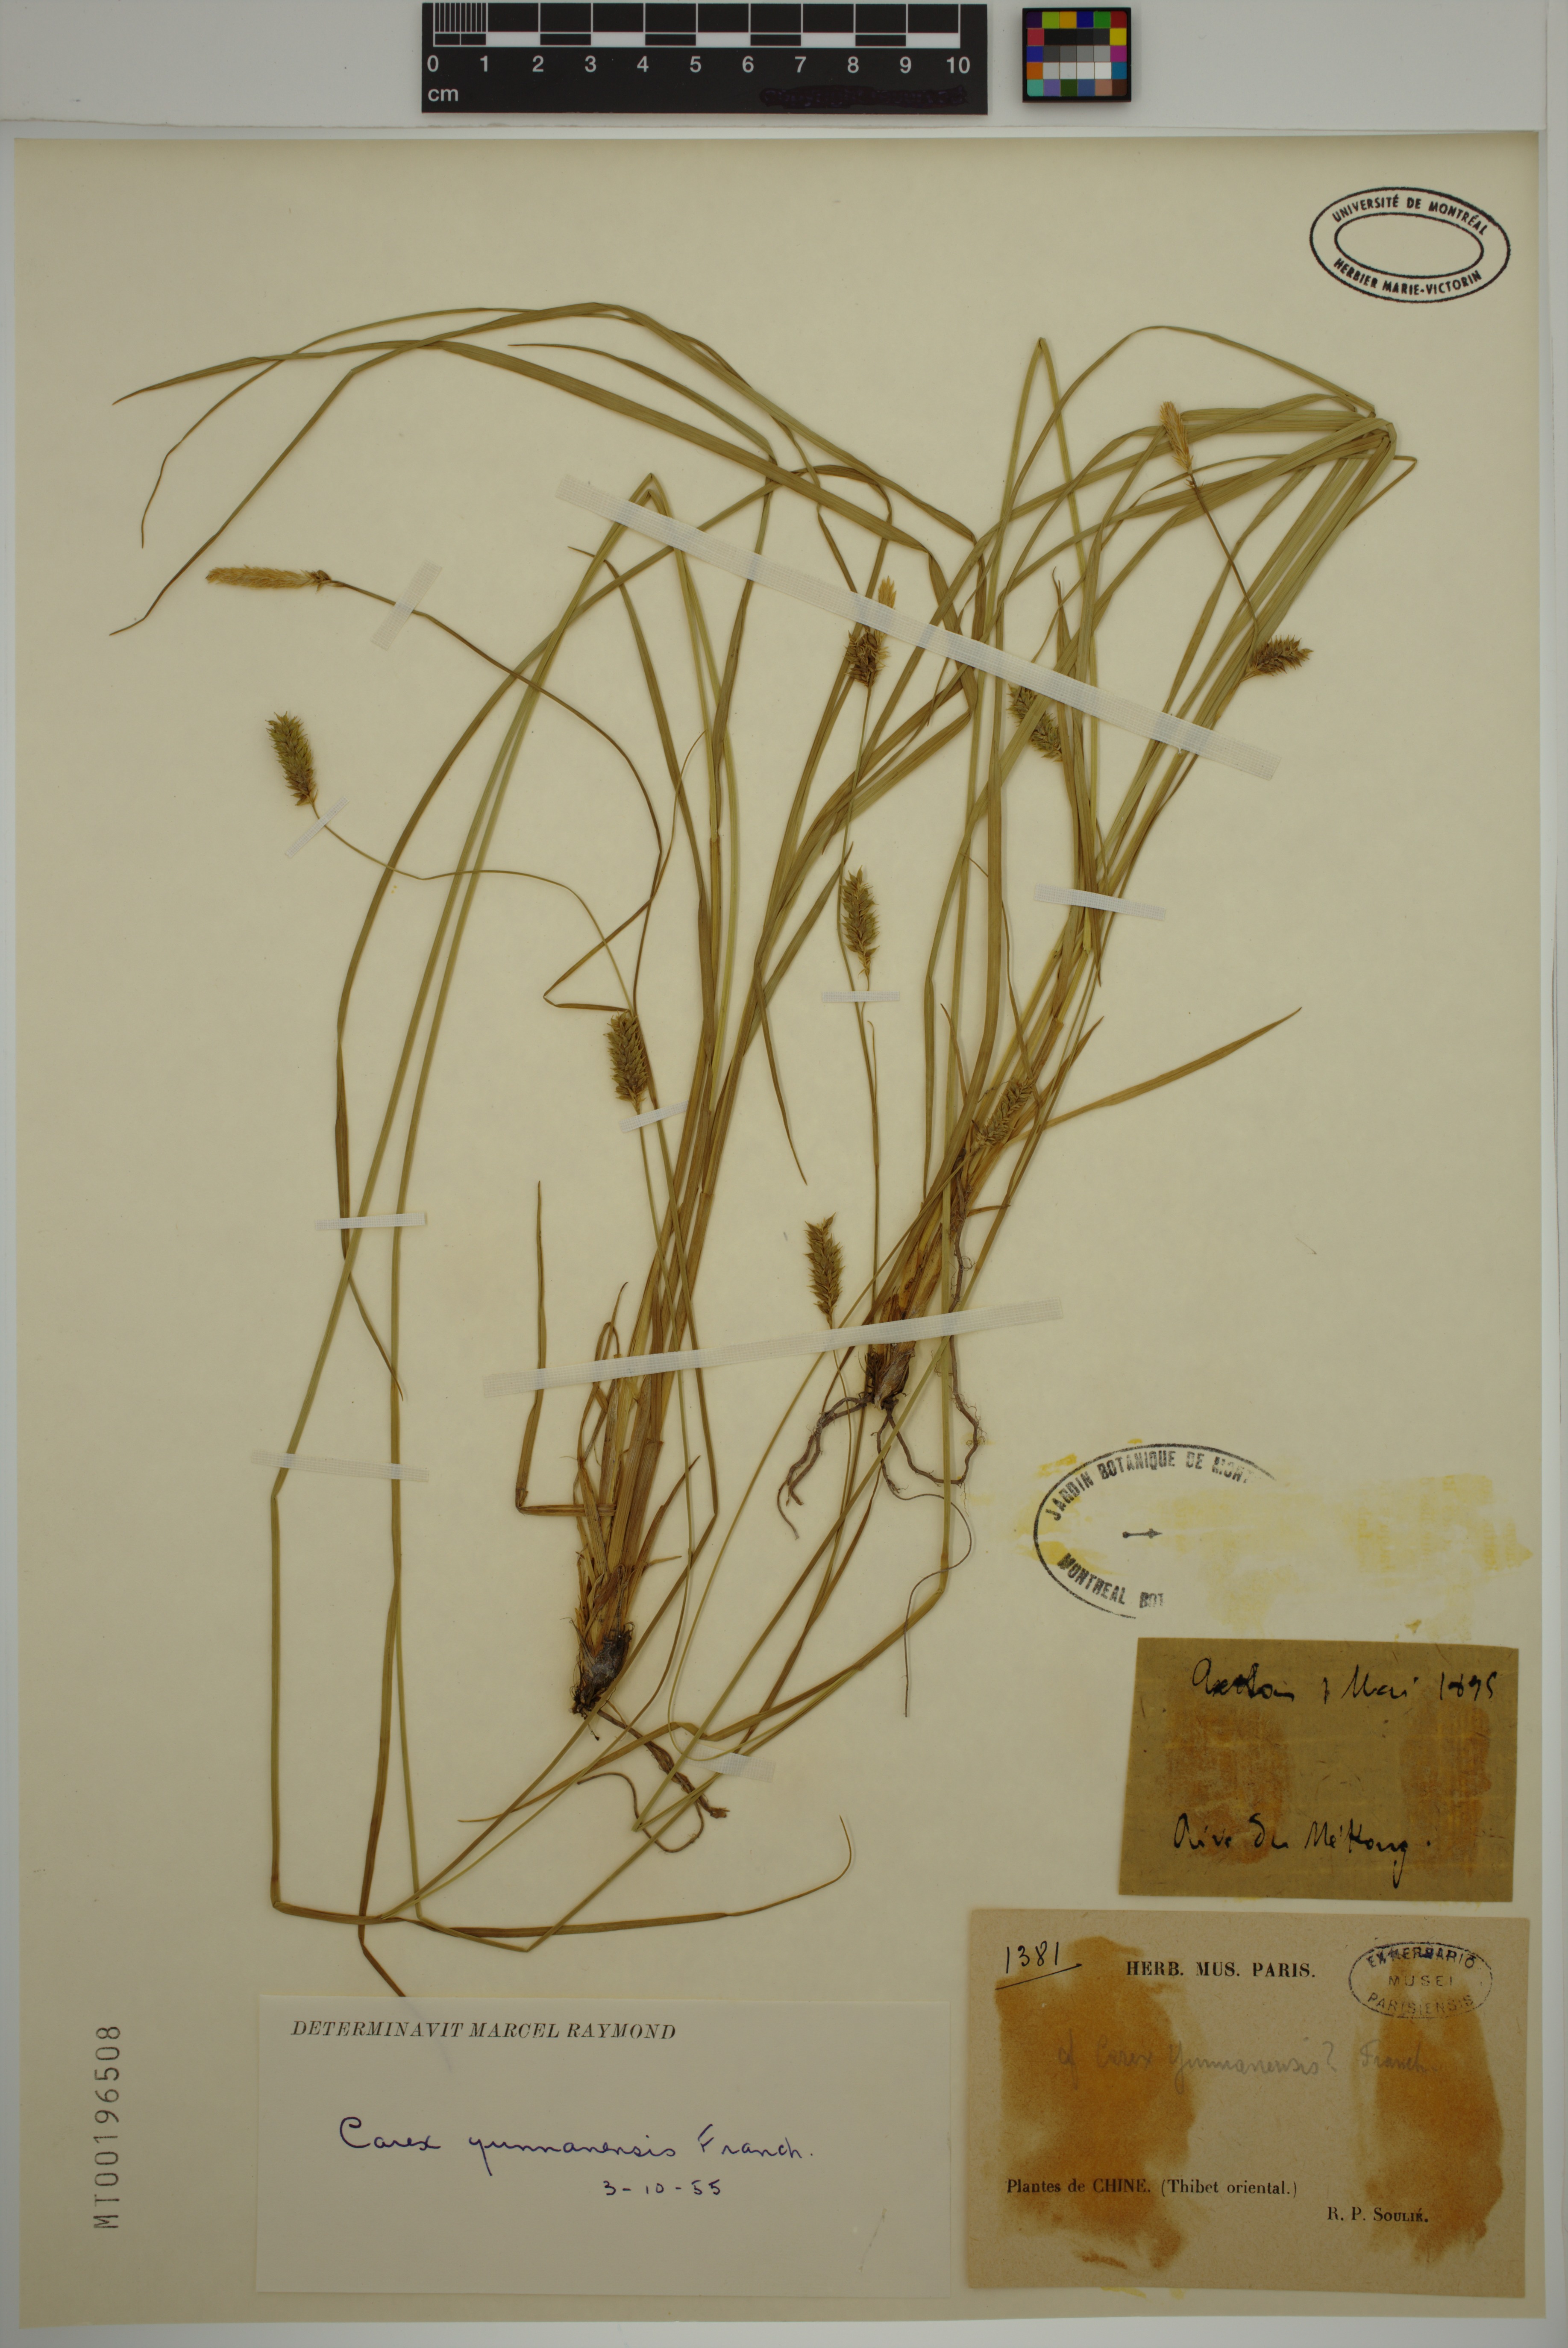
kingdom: Plantae
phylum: Tracheophyta
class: Liliopsida
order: Poales
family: Cyperaceae
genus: Carex
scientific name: Carex yunnanensis
